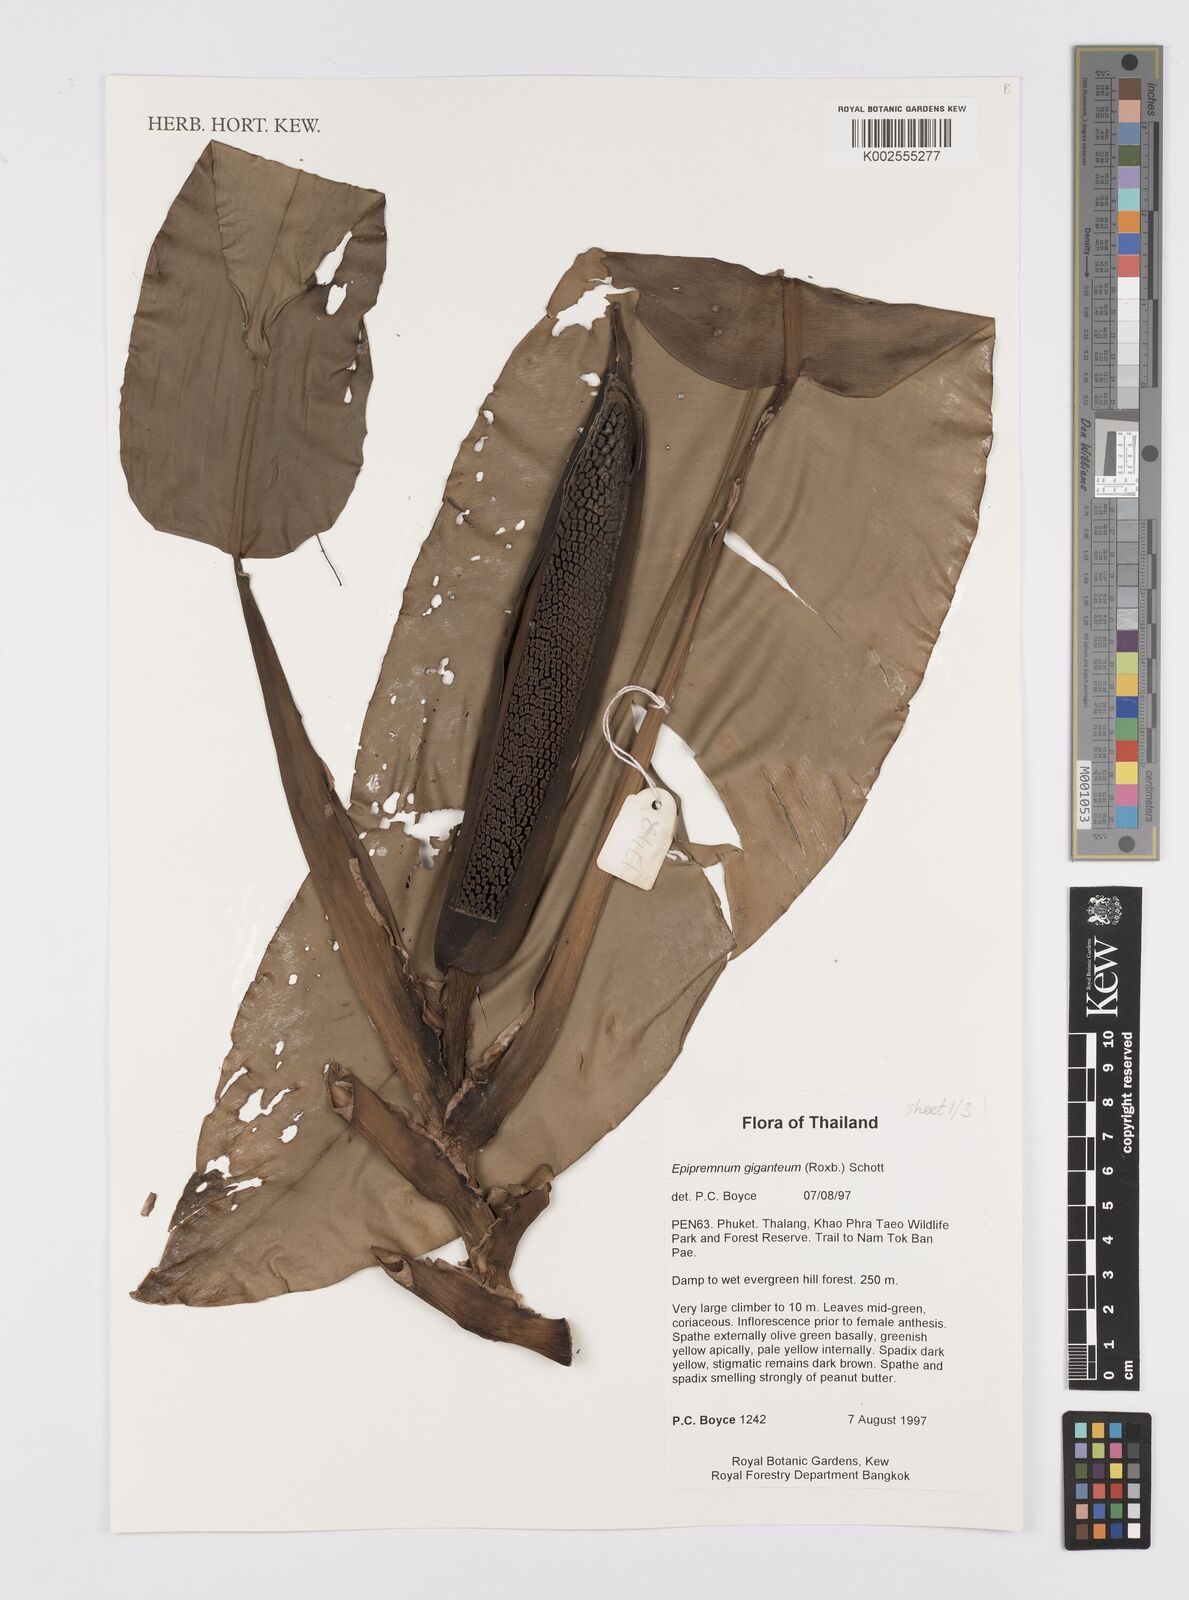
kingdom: Plantae
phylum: Tracheophyta
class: Liliopsida
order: Alismatales
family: Araceae
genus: Epipremnum
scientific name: Epipremnum giganteum
